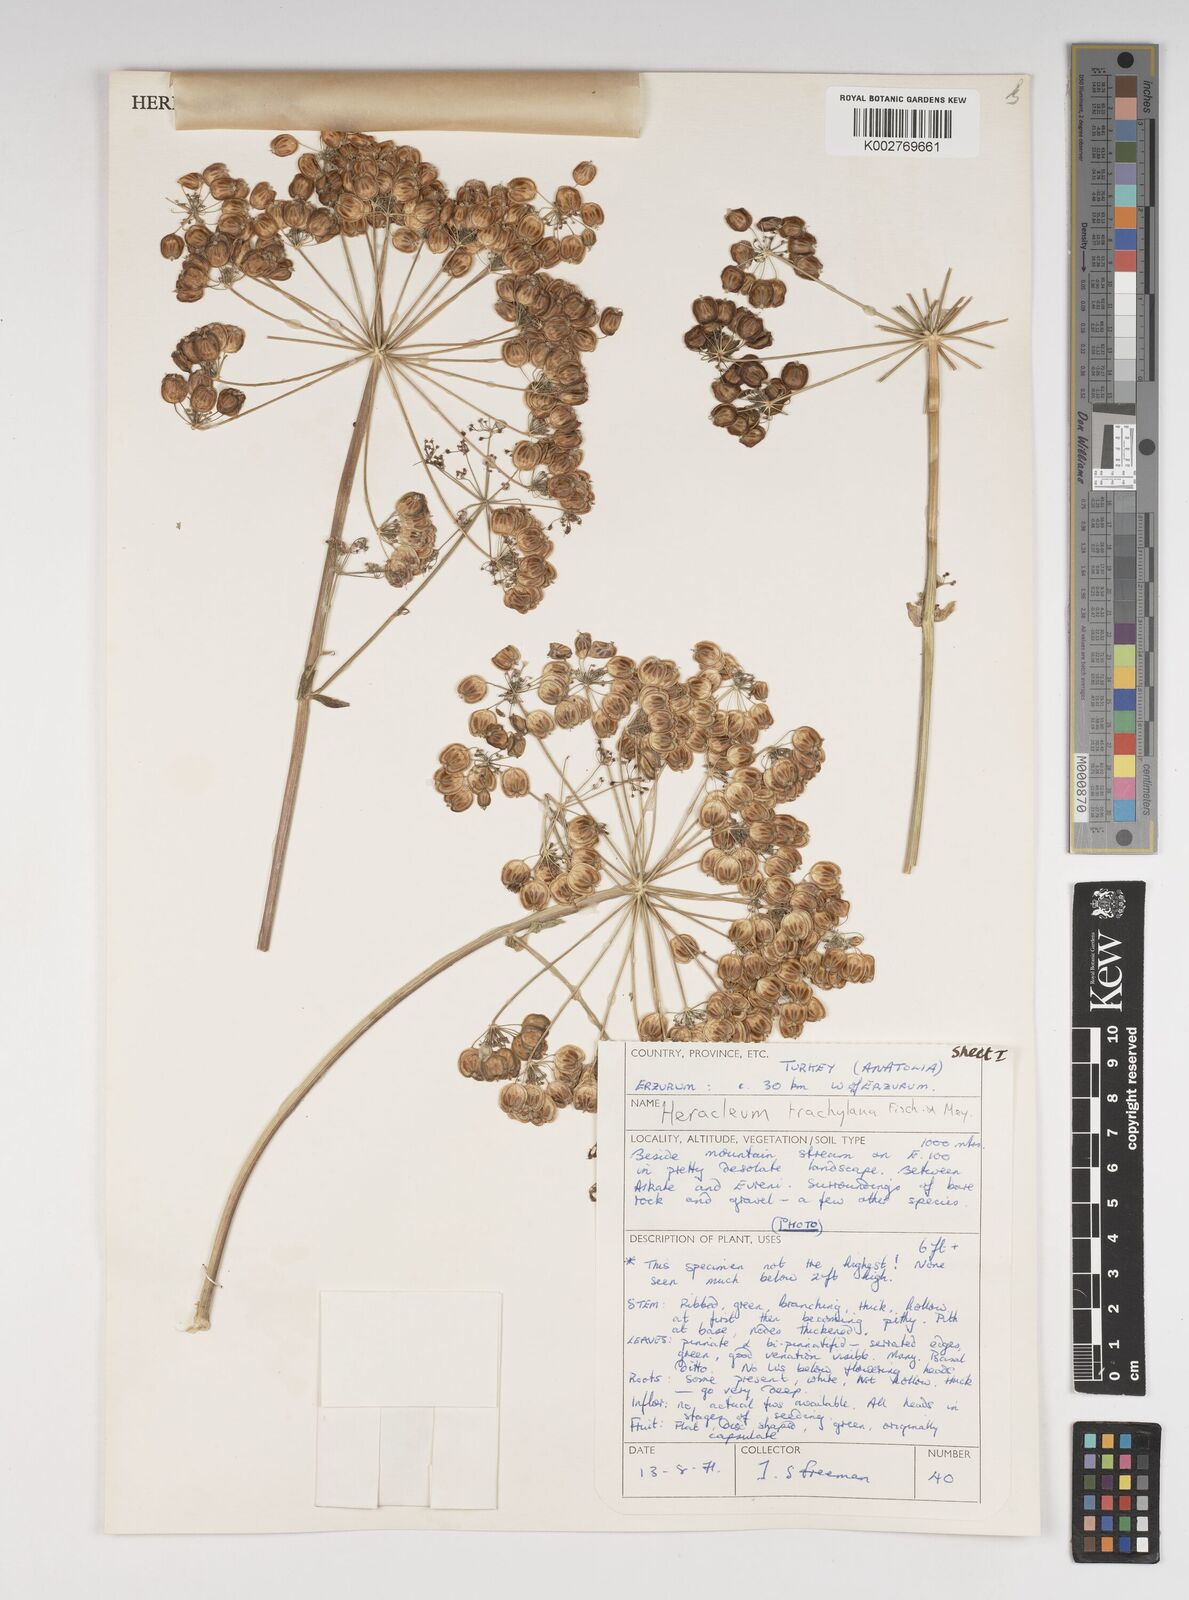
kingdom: Plantae
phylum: Tracheophyta
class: Magnoliopsida
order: Apiales
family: Apiaceae
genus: Heracleum
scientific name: Heracleum trachyloma
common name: Downy cow-parsnip
